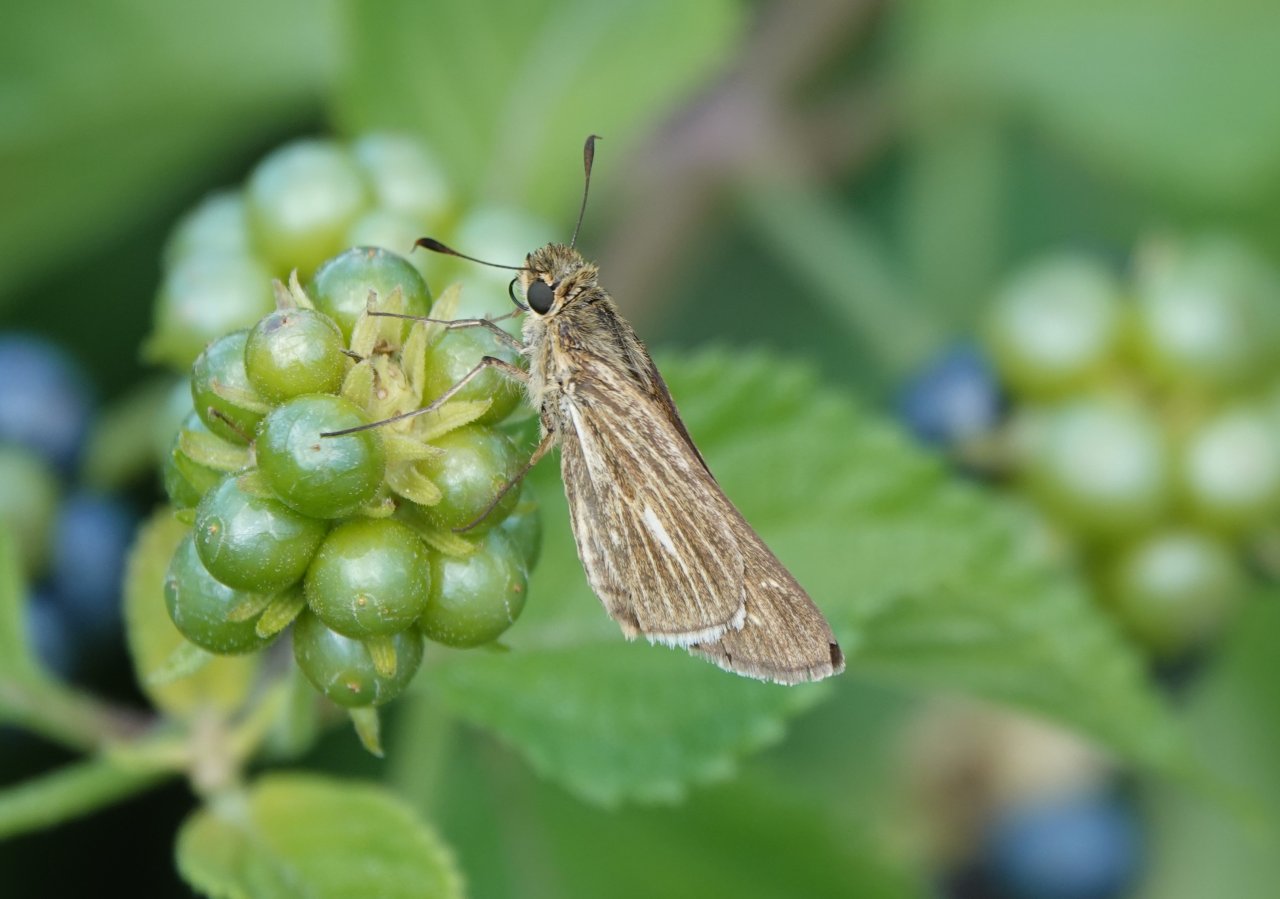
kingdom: Animalia
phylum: Arthropoda
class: Insecta
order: Lepidoptera
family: Hesperiidae
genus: Panoquina
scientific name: Panoquina panoquin
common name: Salt Marsh Skipper
